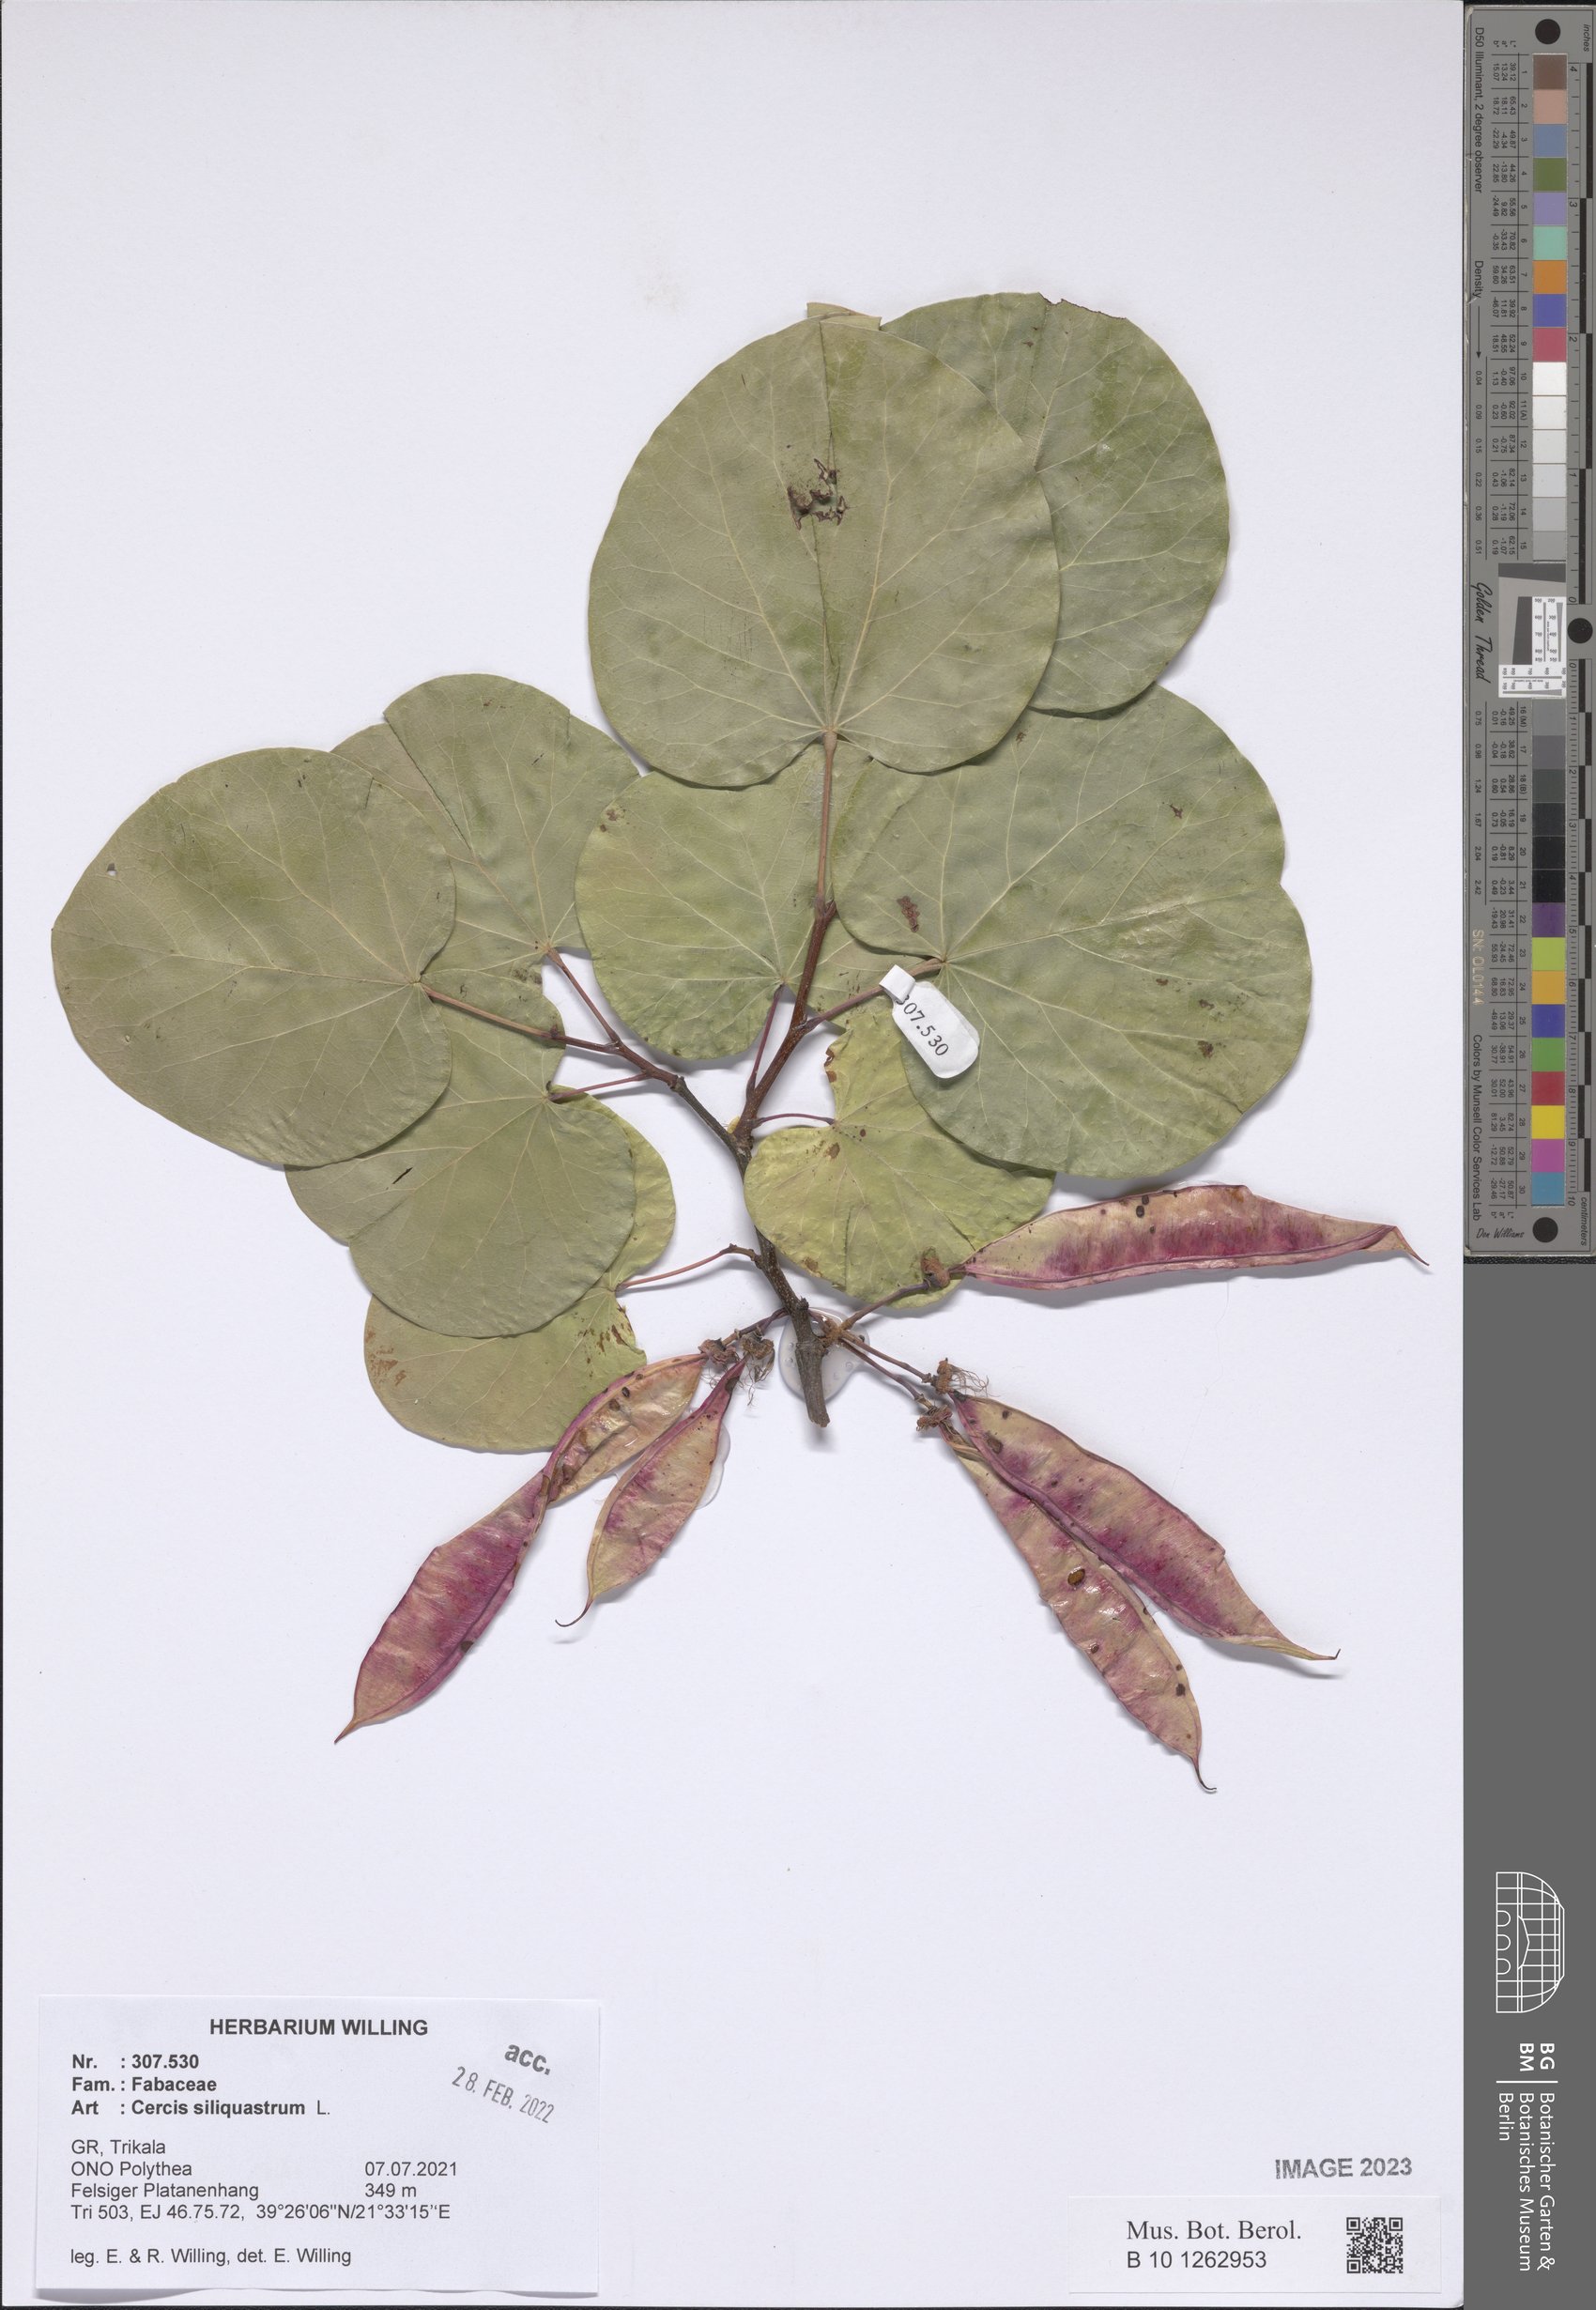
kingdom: Plantae
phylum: Tracheophyta
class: Magnoliopsida
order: Fabales
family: Fabaceae
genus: Cercis
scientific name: Cercis siliquastrum
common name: Judas tree
